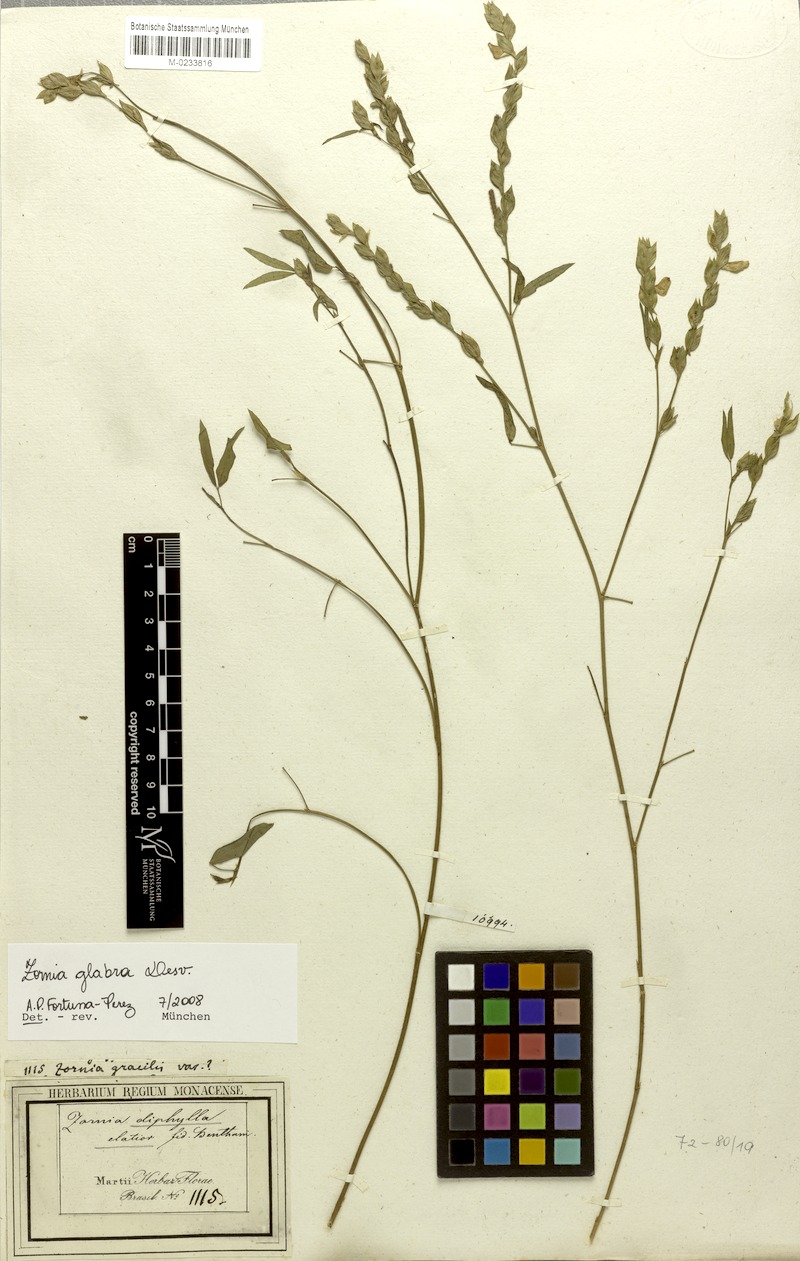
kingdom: Plantae
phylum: Tracheophyta
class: Magnoliopsida
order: Fabales
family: Fabaceae
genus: Zornia
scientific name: Zornia glabra
